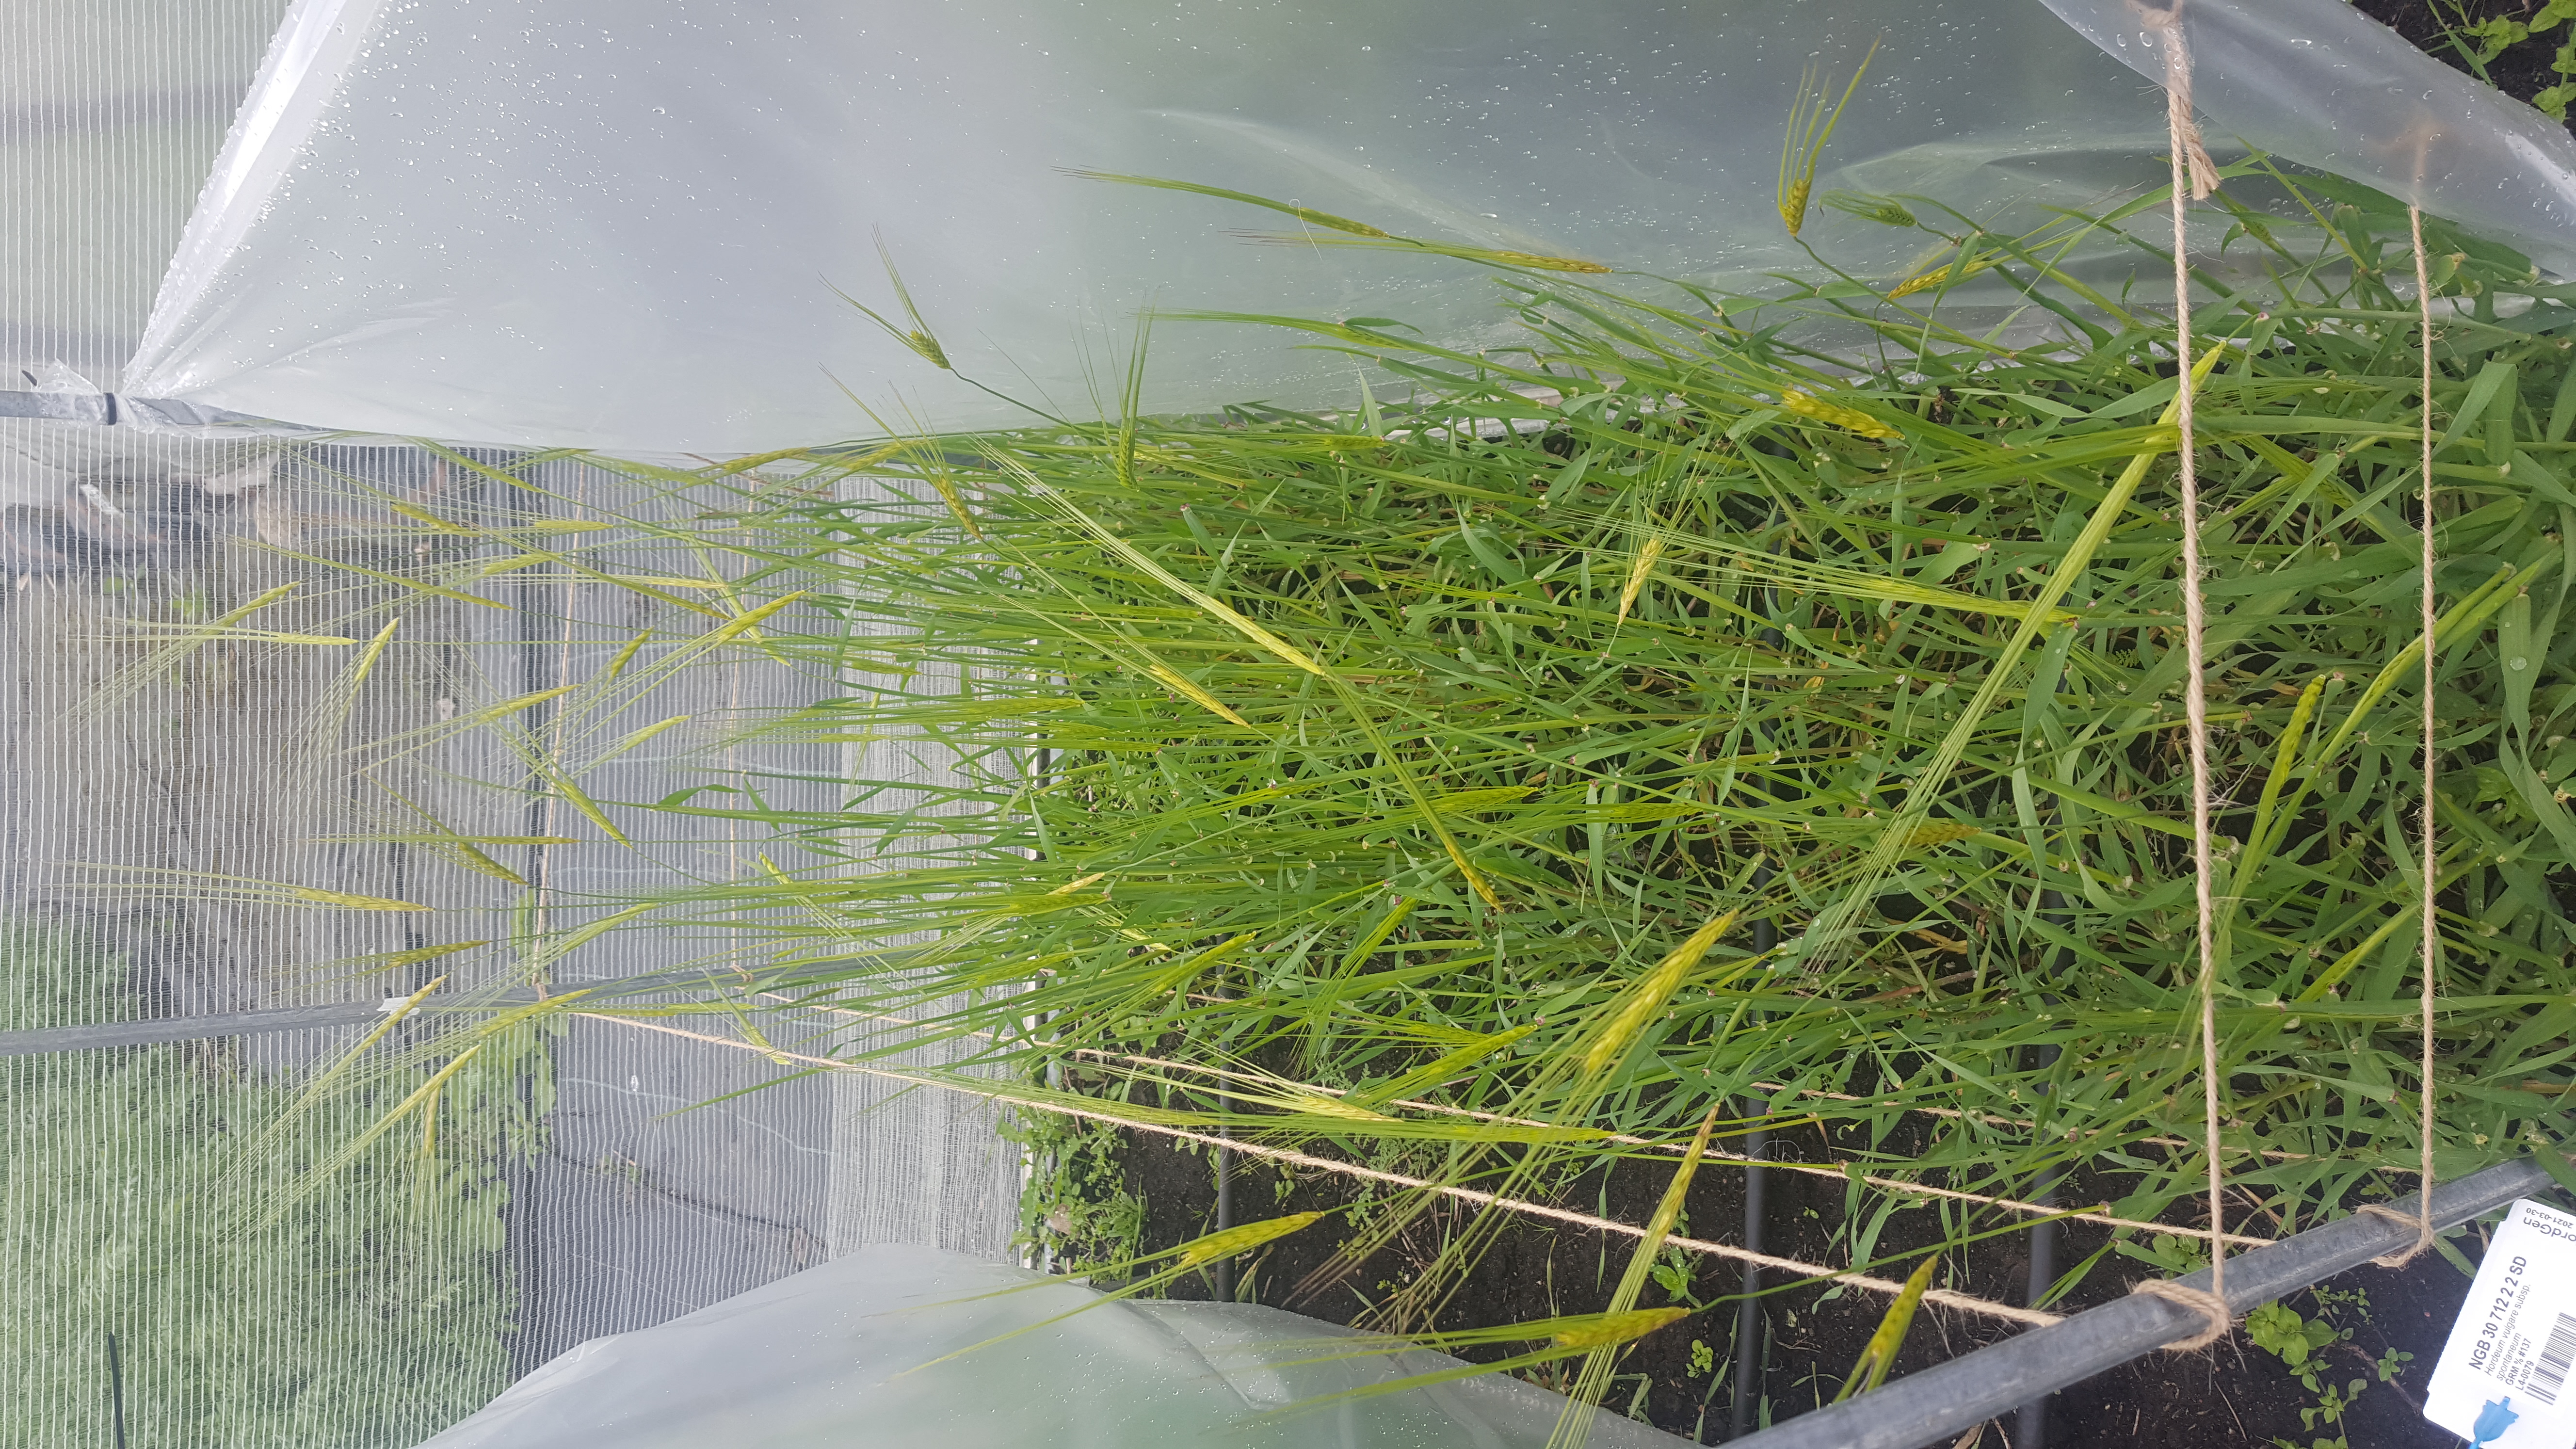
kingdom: Plantae
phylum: Tracheophyta
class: Liliopsida
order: Poales
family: Poaceae
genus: Hordeum
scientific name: Hordeum spontaneum
